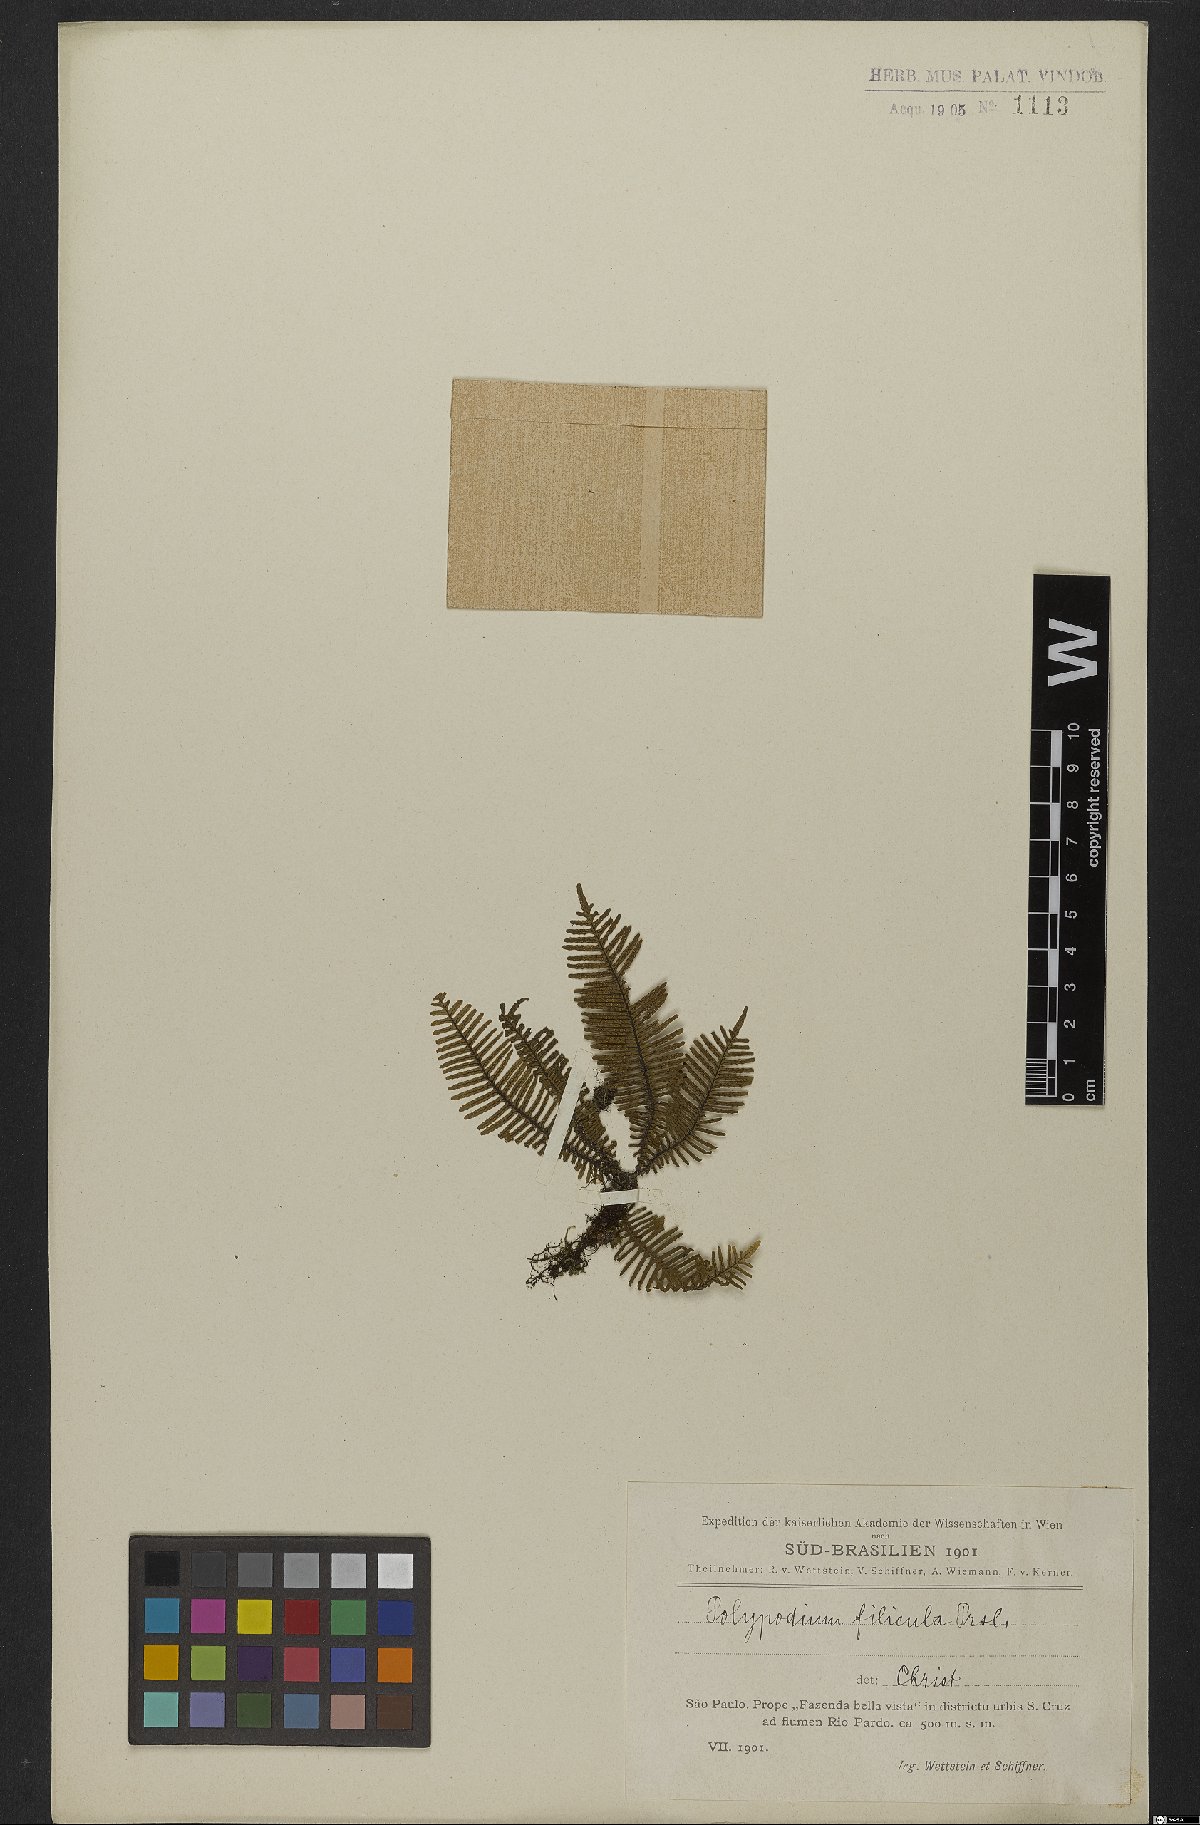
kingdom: Plantae
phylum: Tracheophyta
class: Polypodiopsida
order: Polypodiales
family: Polypodiaceae
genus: Pecluma
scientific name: Pecluma filicula
